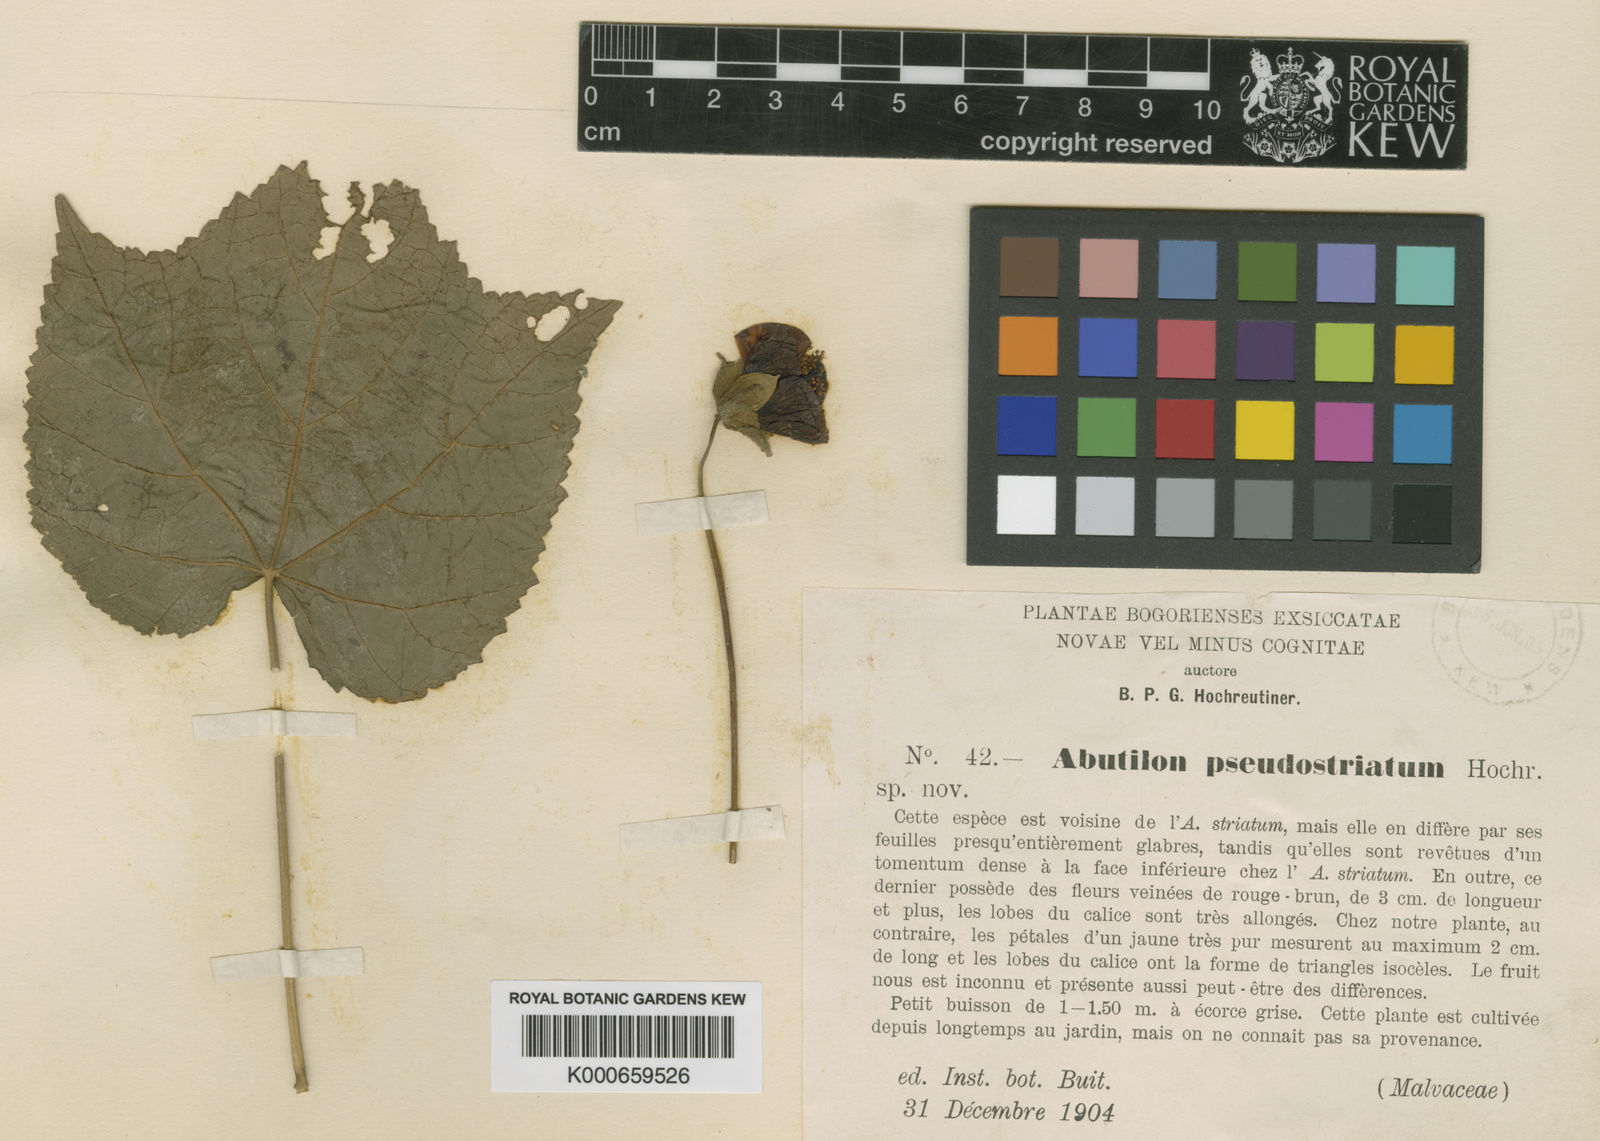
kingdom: Plantae
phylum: Tracheophyta
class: Magnoliopsida
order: Malvales
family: Malvaceae
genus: Callianthe
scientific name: Callianthe striata
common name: Flowering-maple
